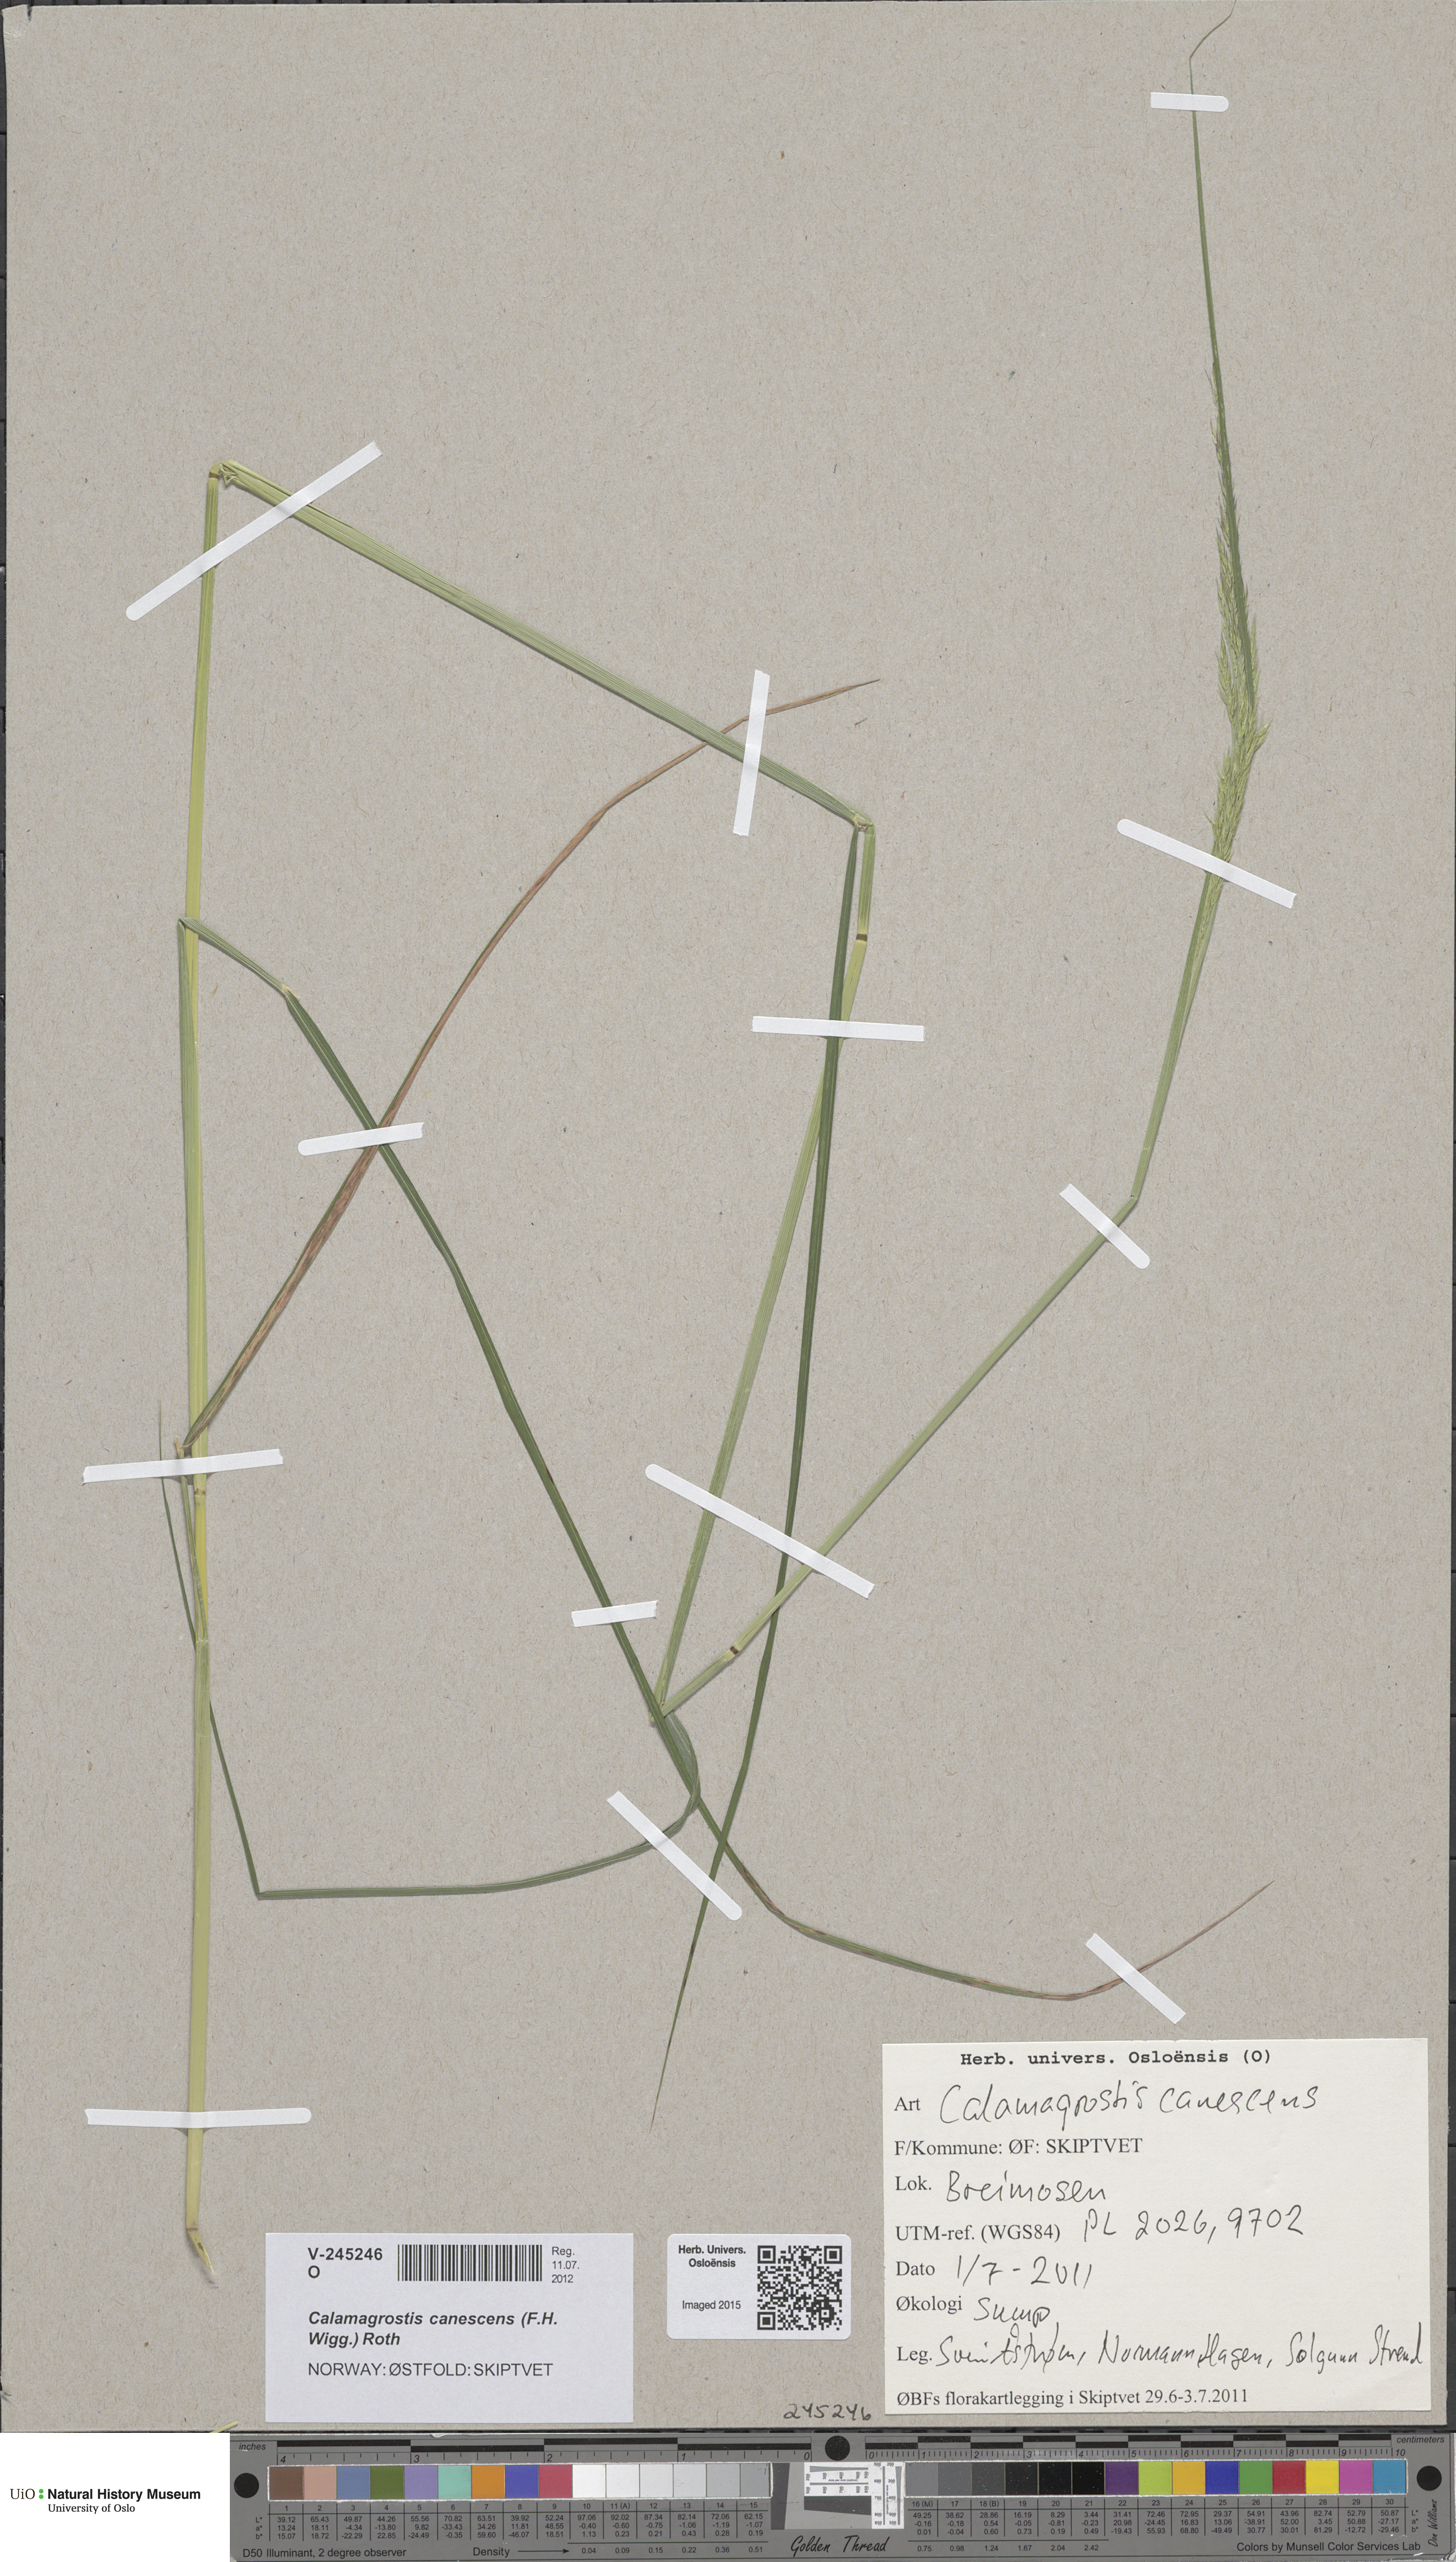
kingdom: Plantae
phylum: Tracheophyta
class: Liliopsida
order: Poales
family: Poaceae
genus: Calamagrostis
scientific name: Calamagrostis canescens
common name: Purple small-reed
